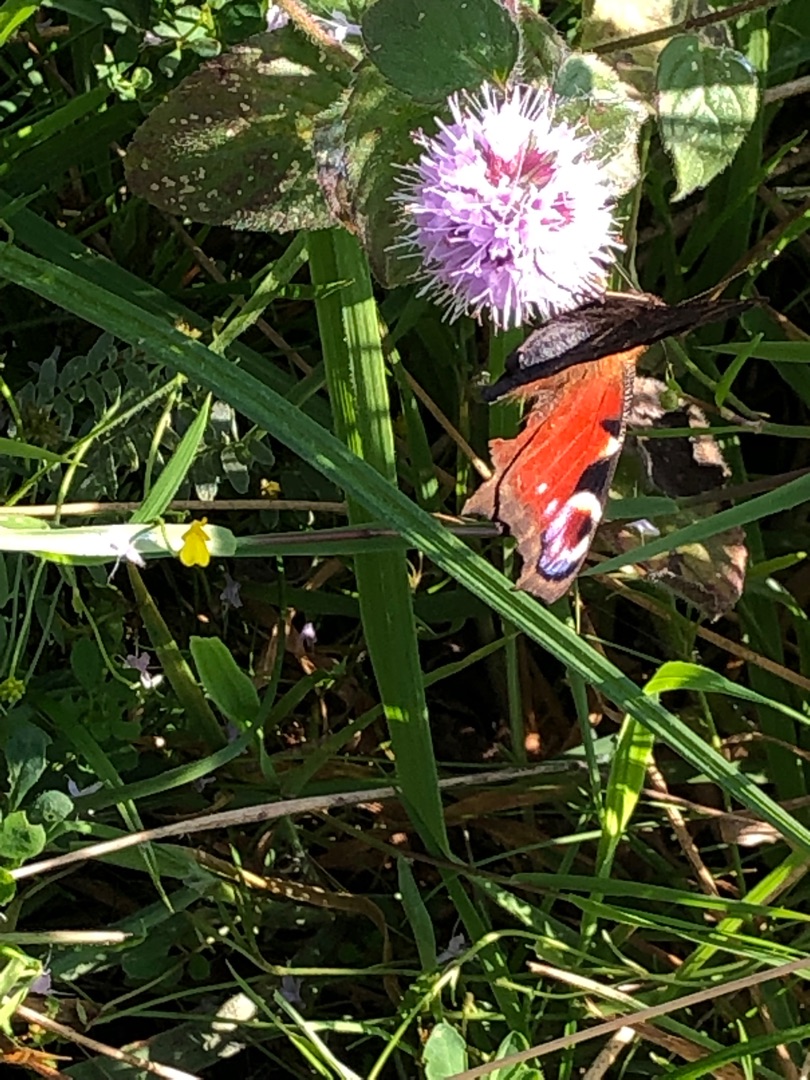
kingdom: Animalia
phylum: Arthropoda
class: Insecta
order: Lepidoptera
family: Nymphalidae
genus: Aglais
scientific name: Aglais io
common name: Dagpåfugleøje
